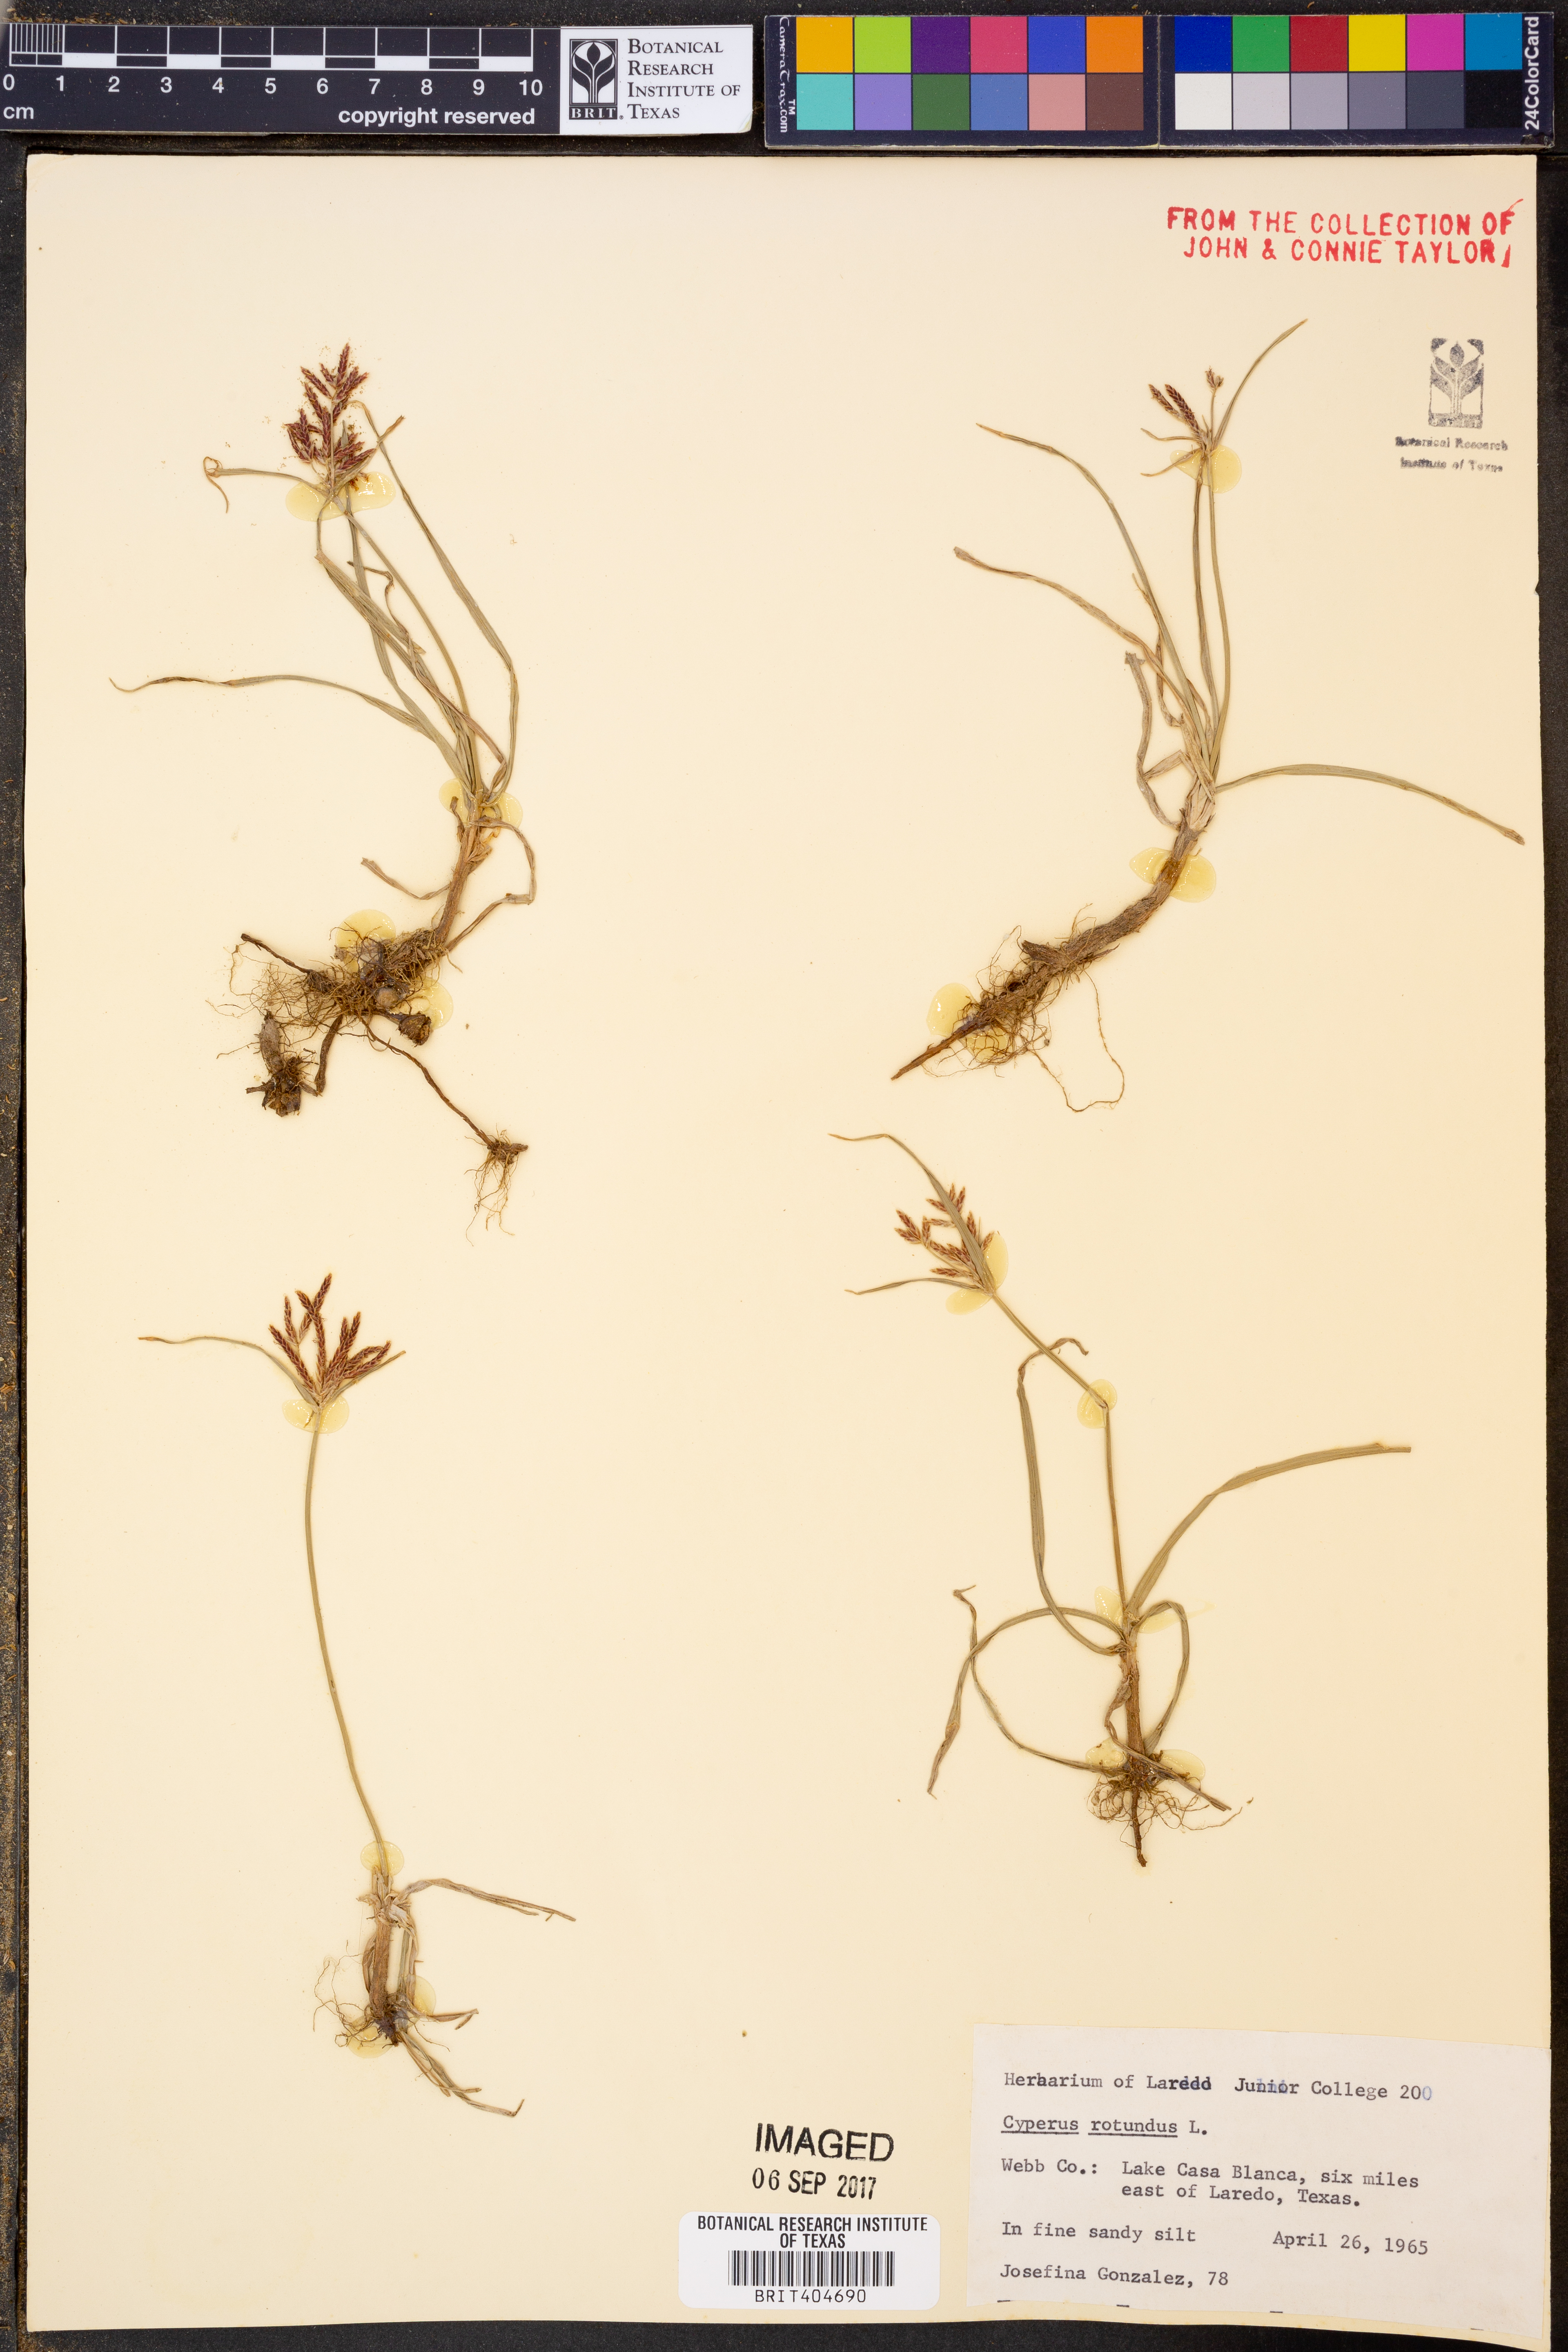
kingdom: Plantae
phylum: Tracheophyta
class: Liliopsida
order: Poales
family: Cyperaceae
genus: Cyperus
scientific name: Cyperus rotundus
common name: Nutgrass
